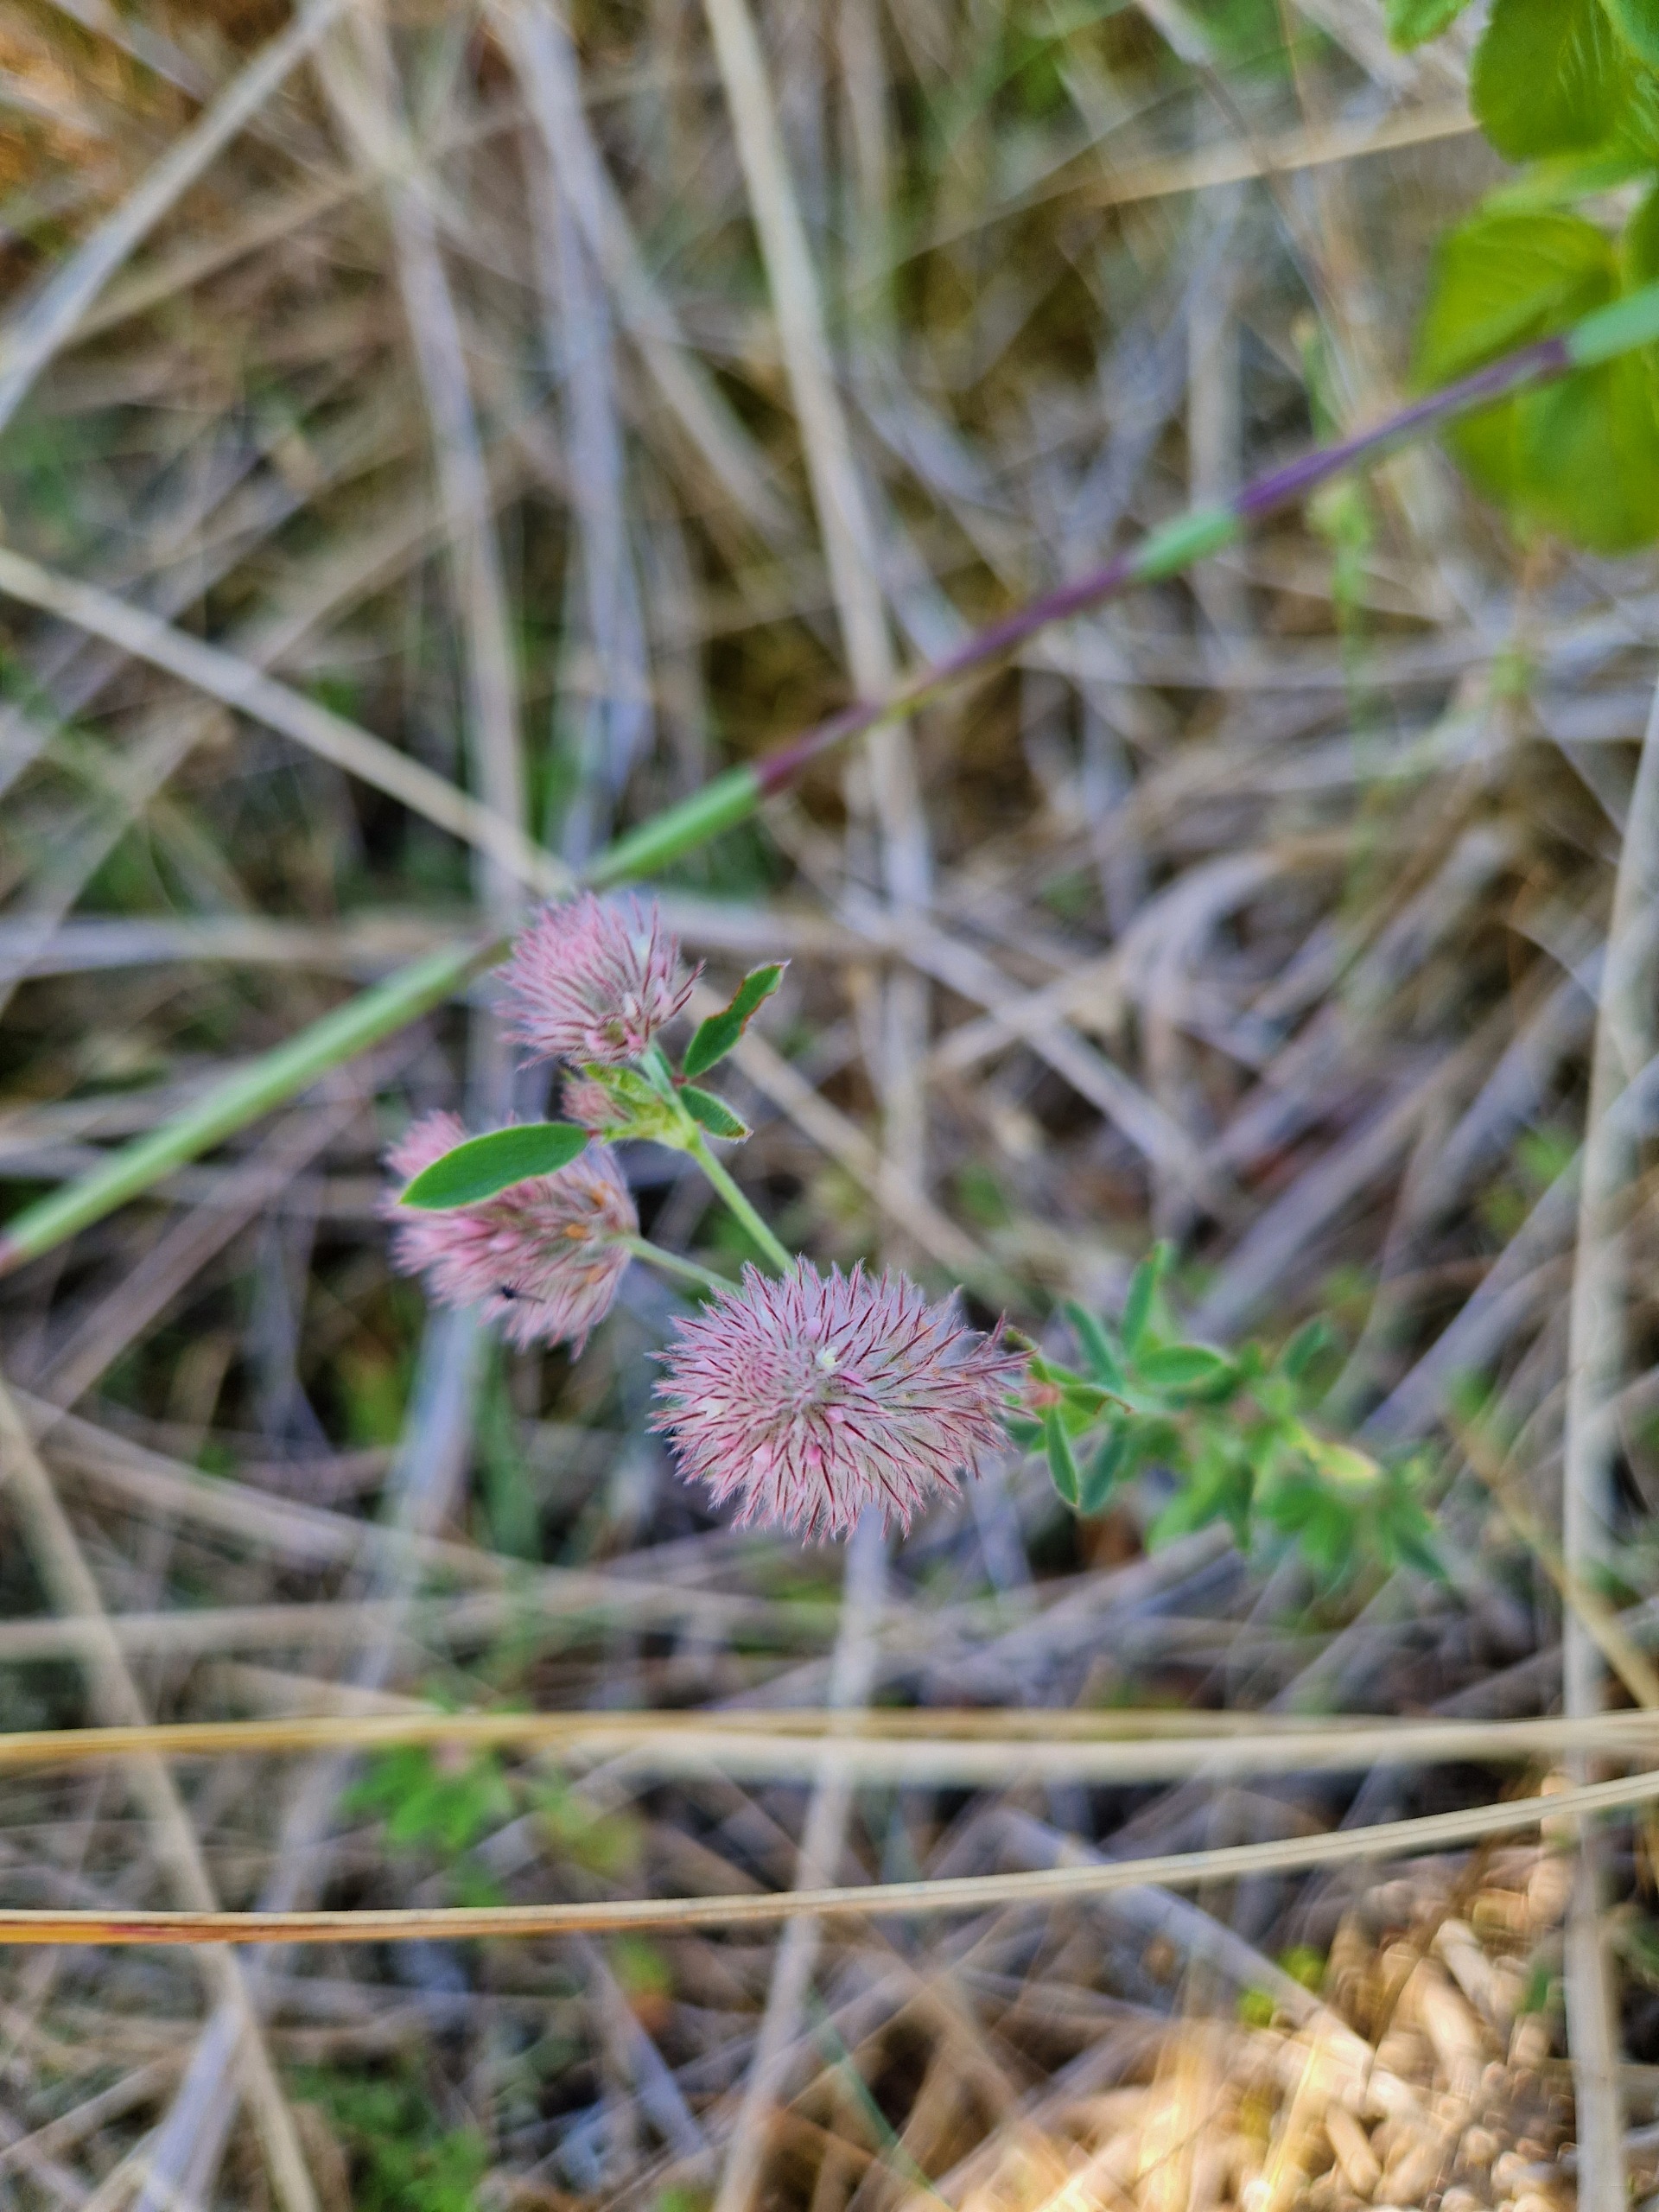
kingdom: Plantae
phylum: Tracheophyta
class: Magnoliopsida
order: Fabales
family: Fabaceae
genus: Trifolium
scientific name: Trifolium arvense
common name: Hare-kløver
